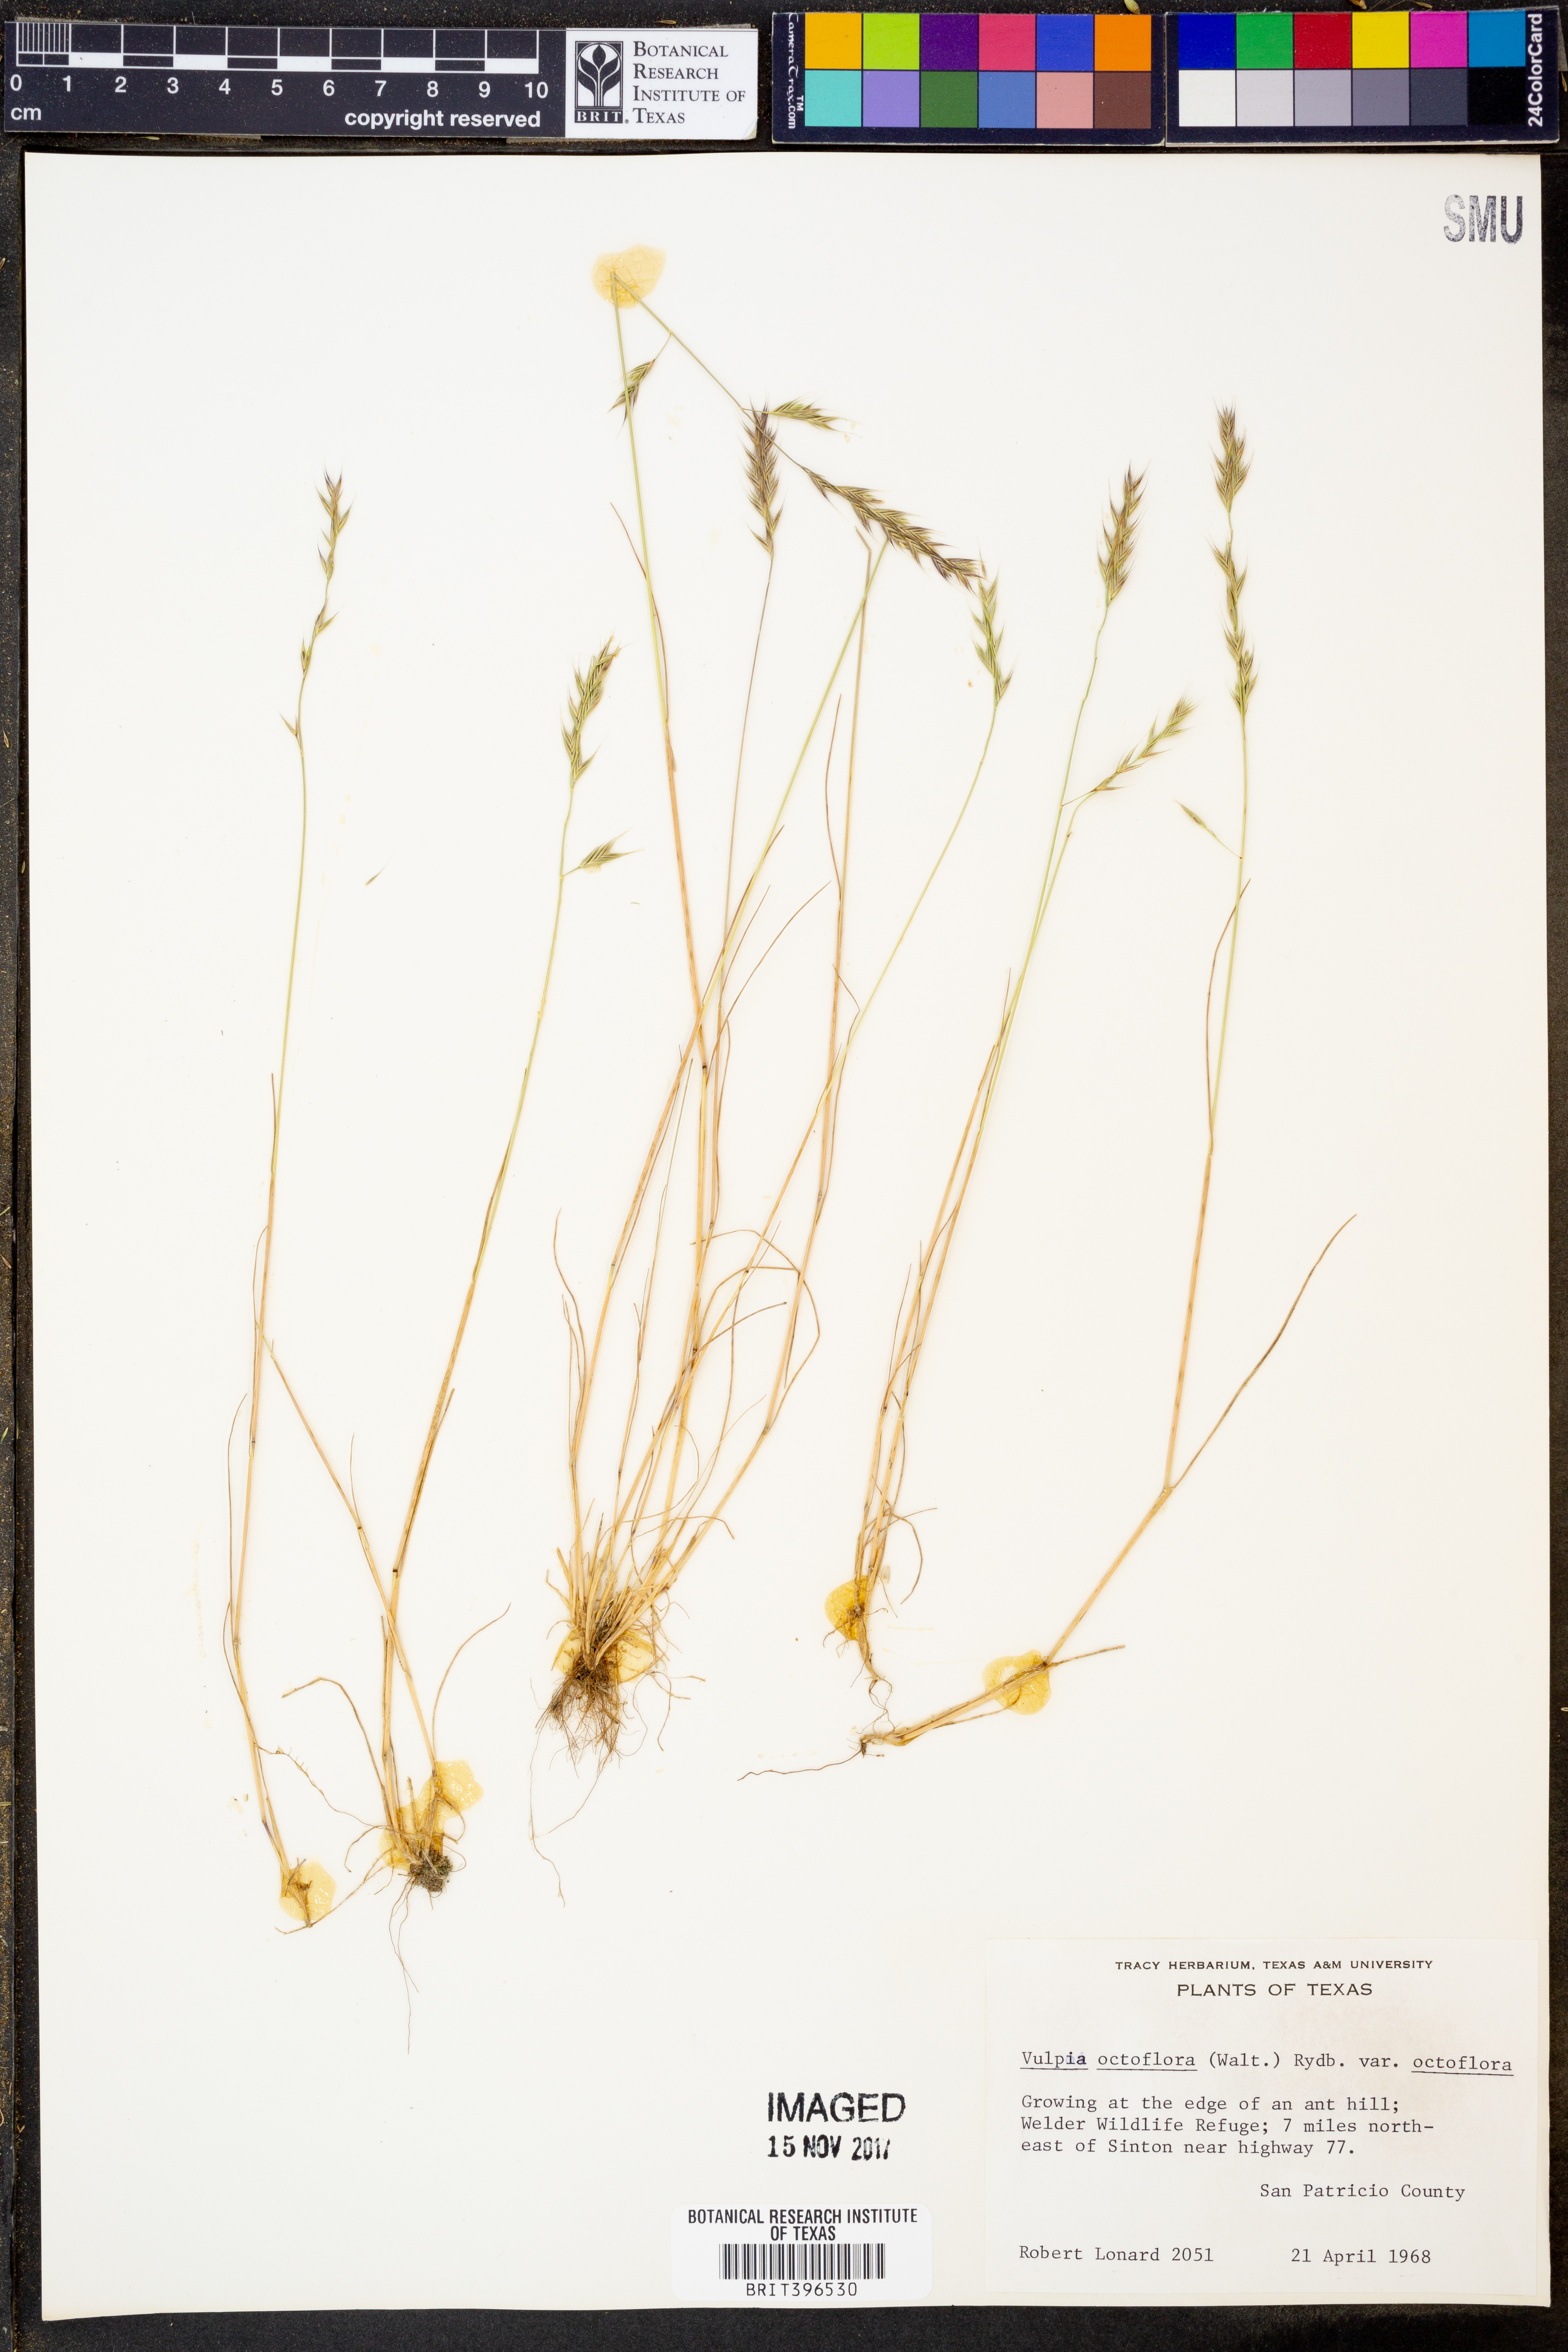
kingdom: Plantae
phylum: Tracheophyta
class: Liliopsida
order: Poales
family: Poaceae
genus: Festuca
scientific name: Festuca octoflora
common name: Sixweeks grass
